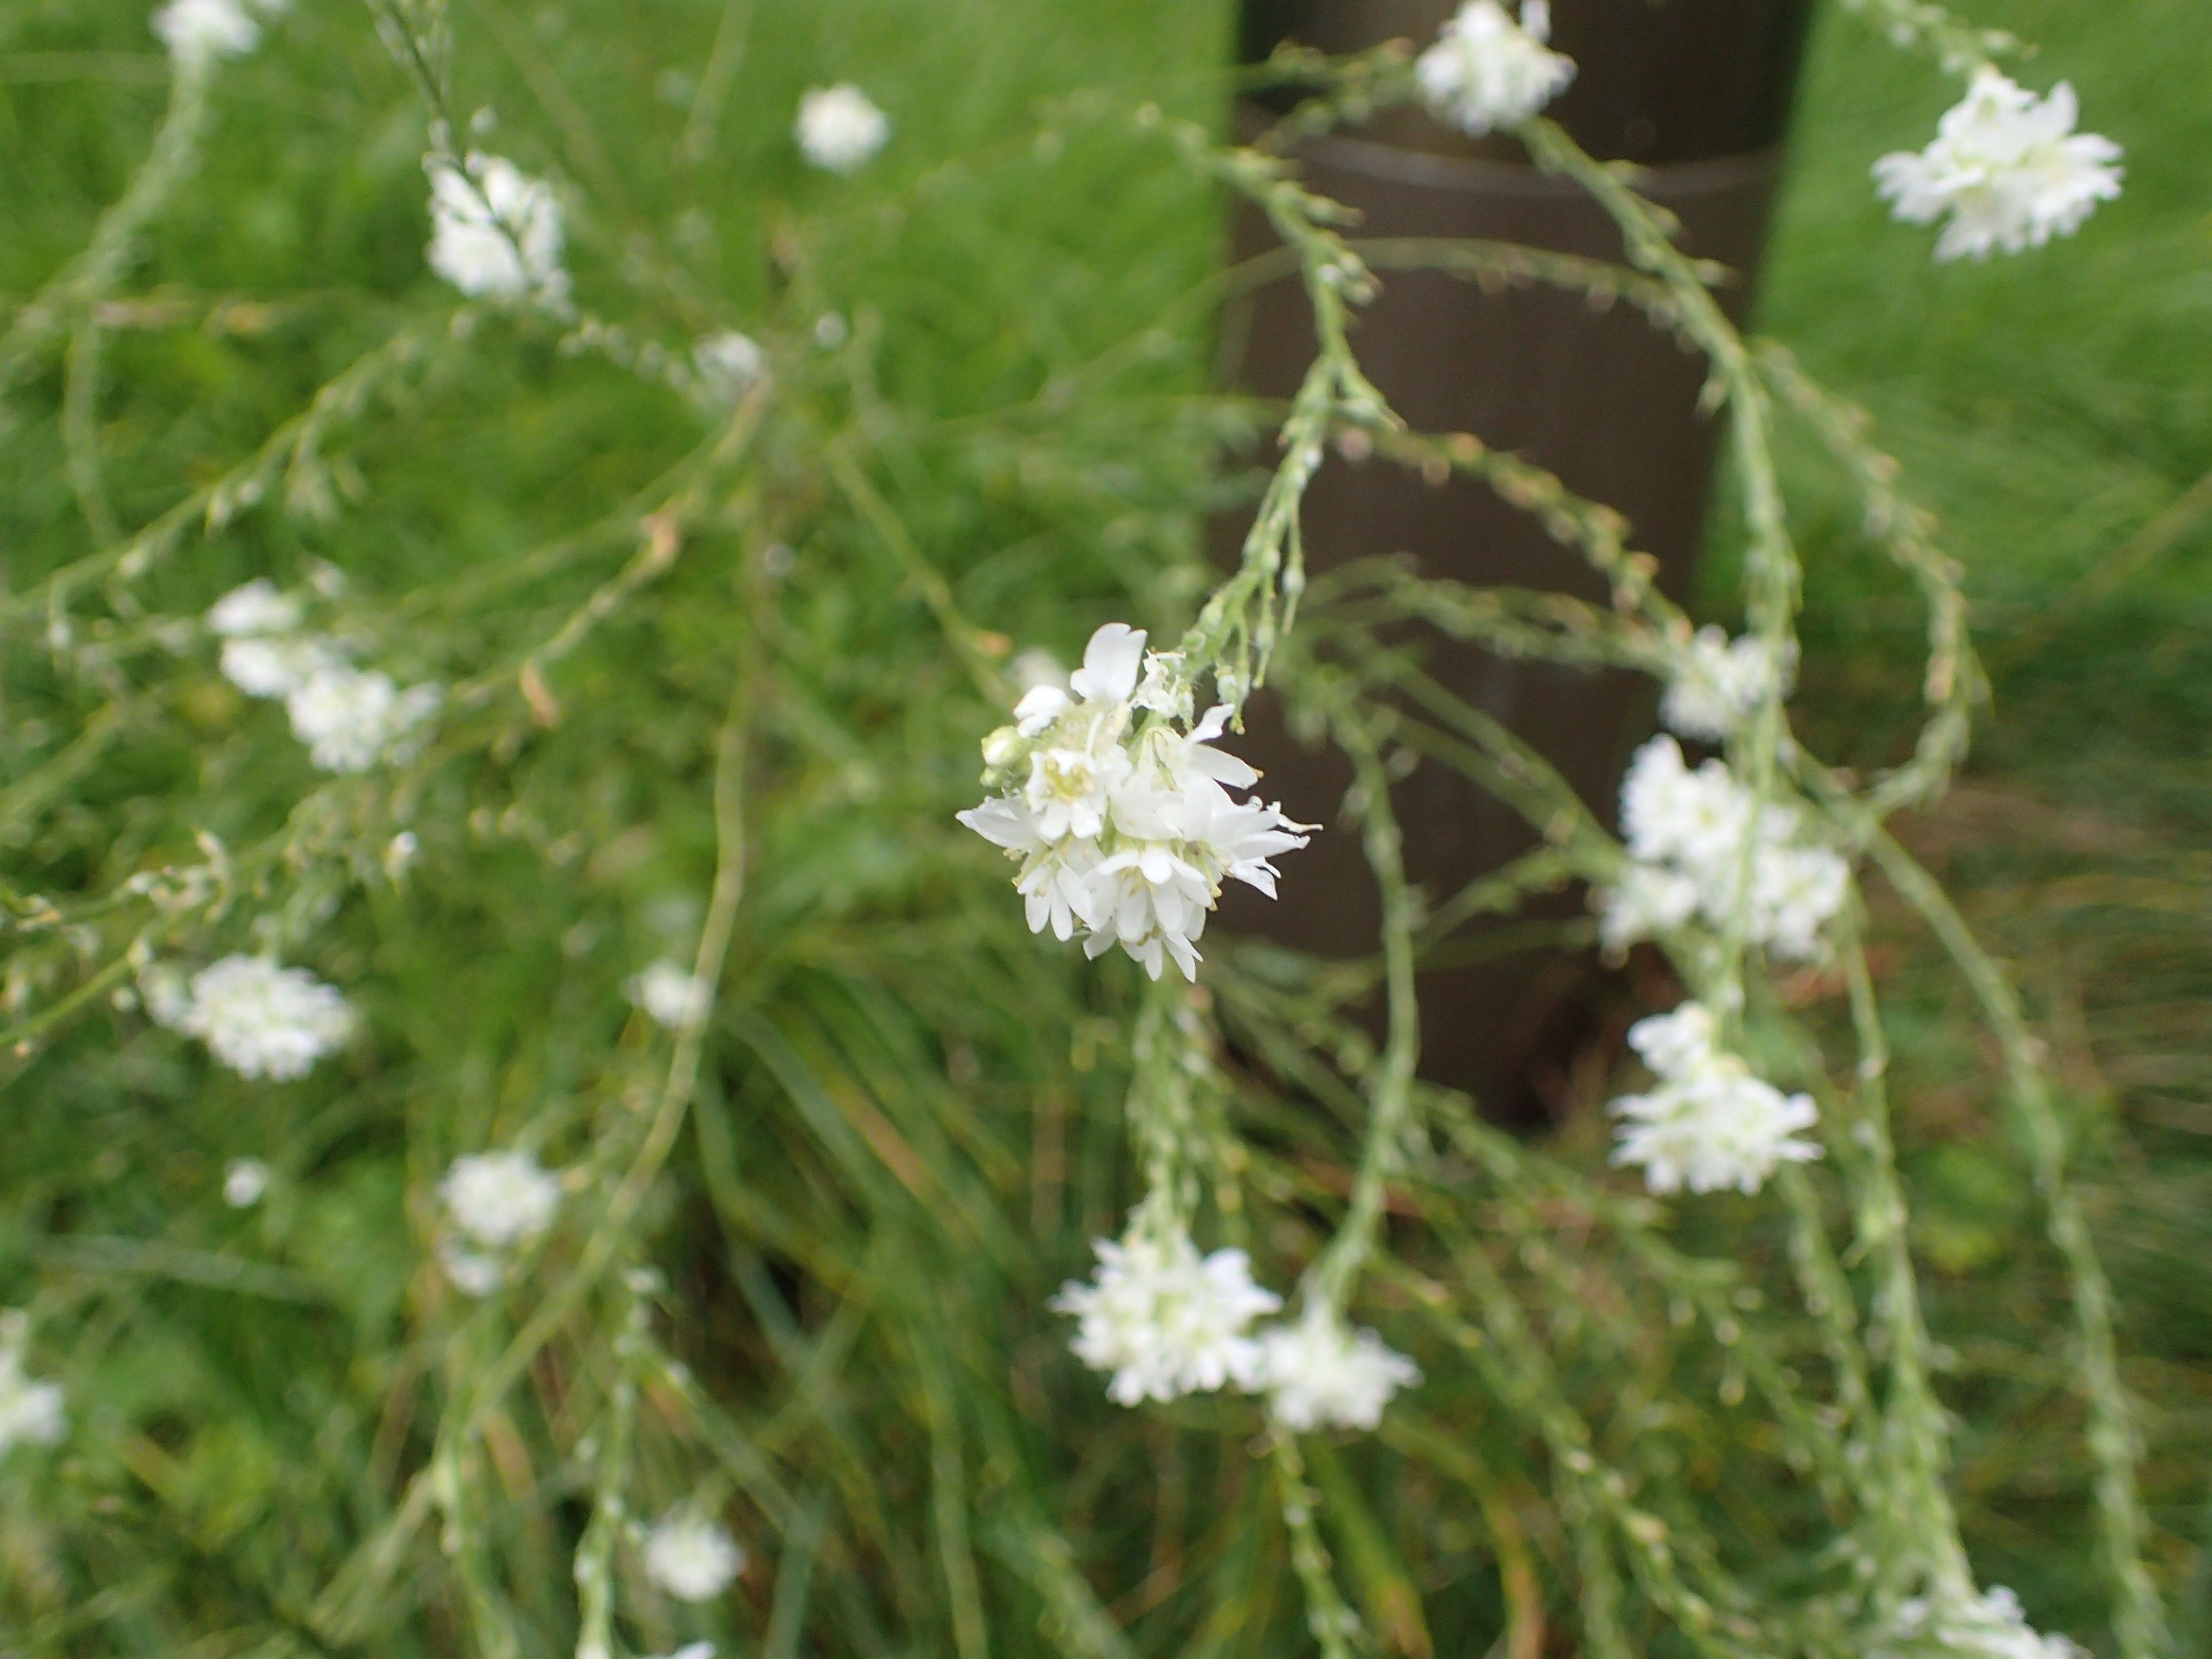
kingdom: Plantae
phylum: Tracheophyta
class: Magnoliopsida
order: Brassicales
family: Brassicaceae
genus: Berteroa
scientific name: Berteroa incana
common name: Kløvplade
